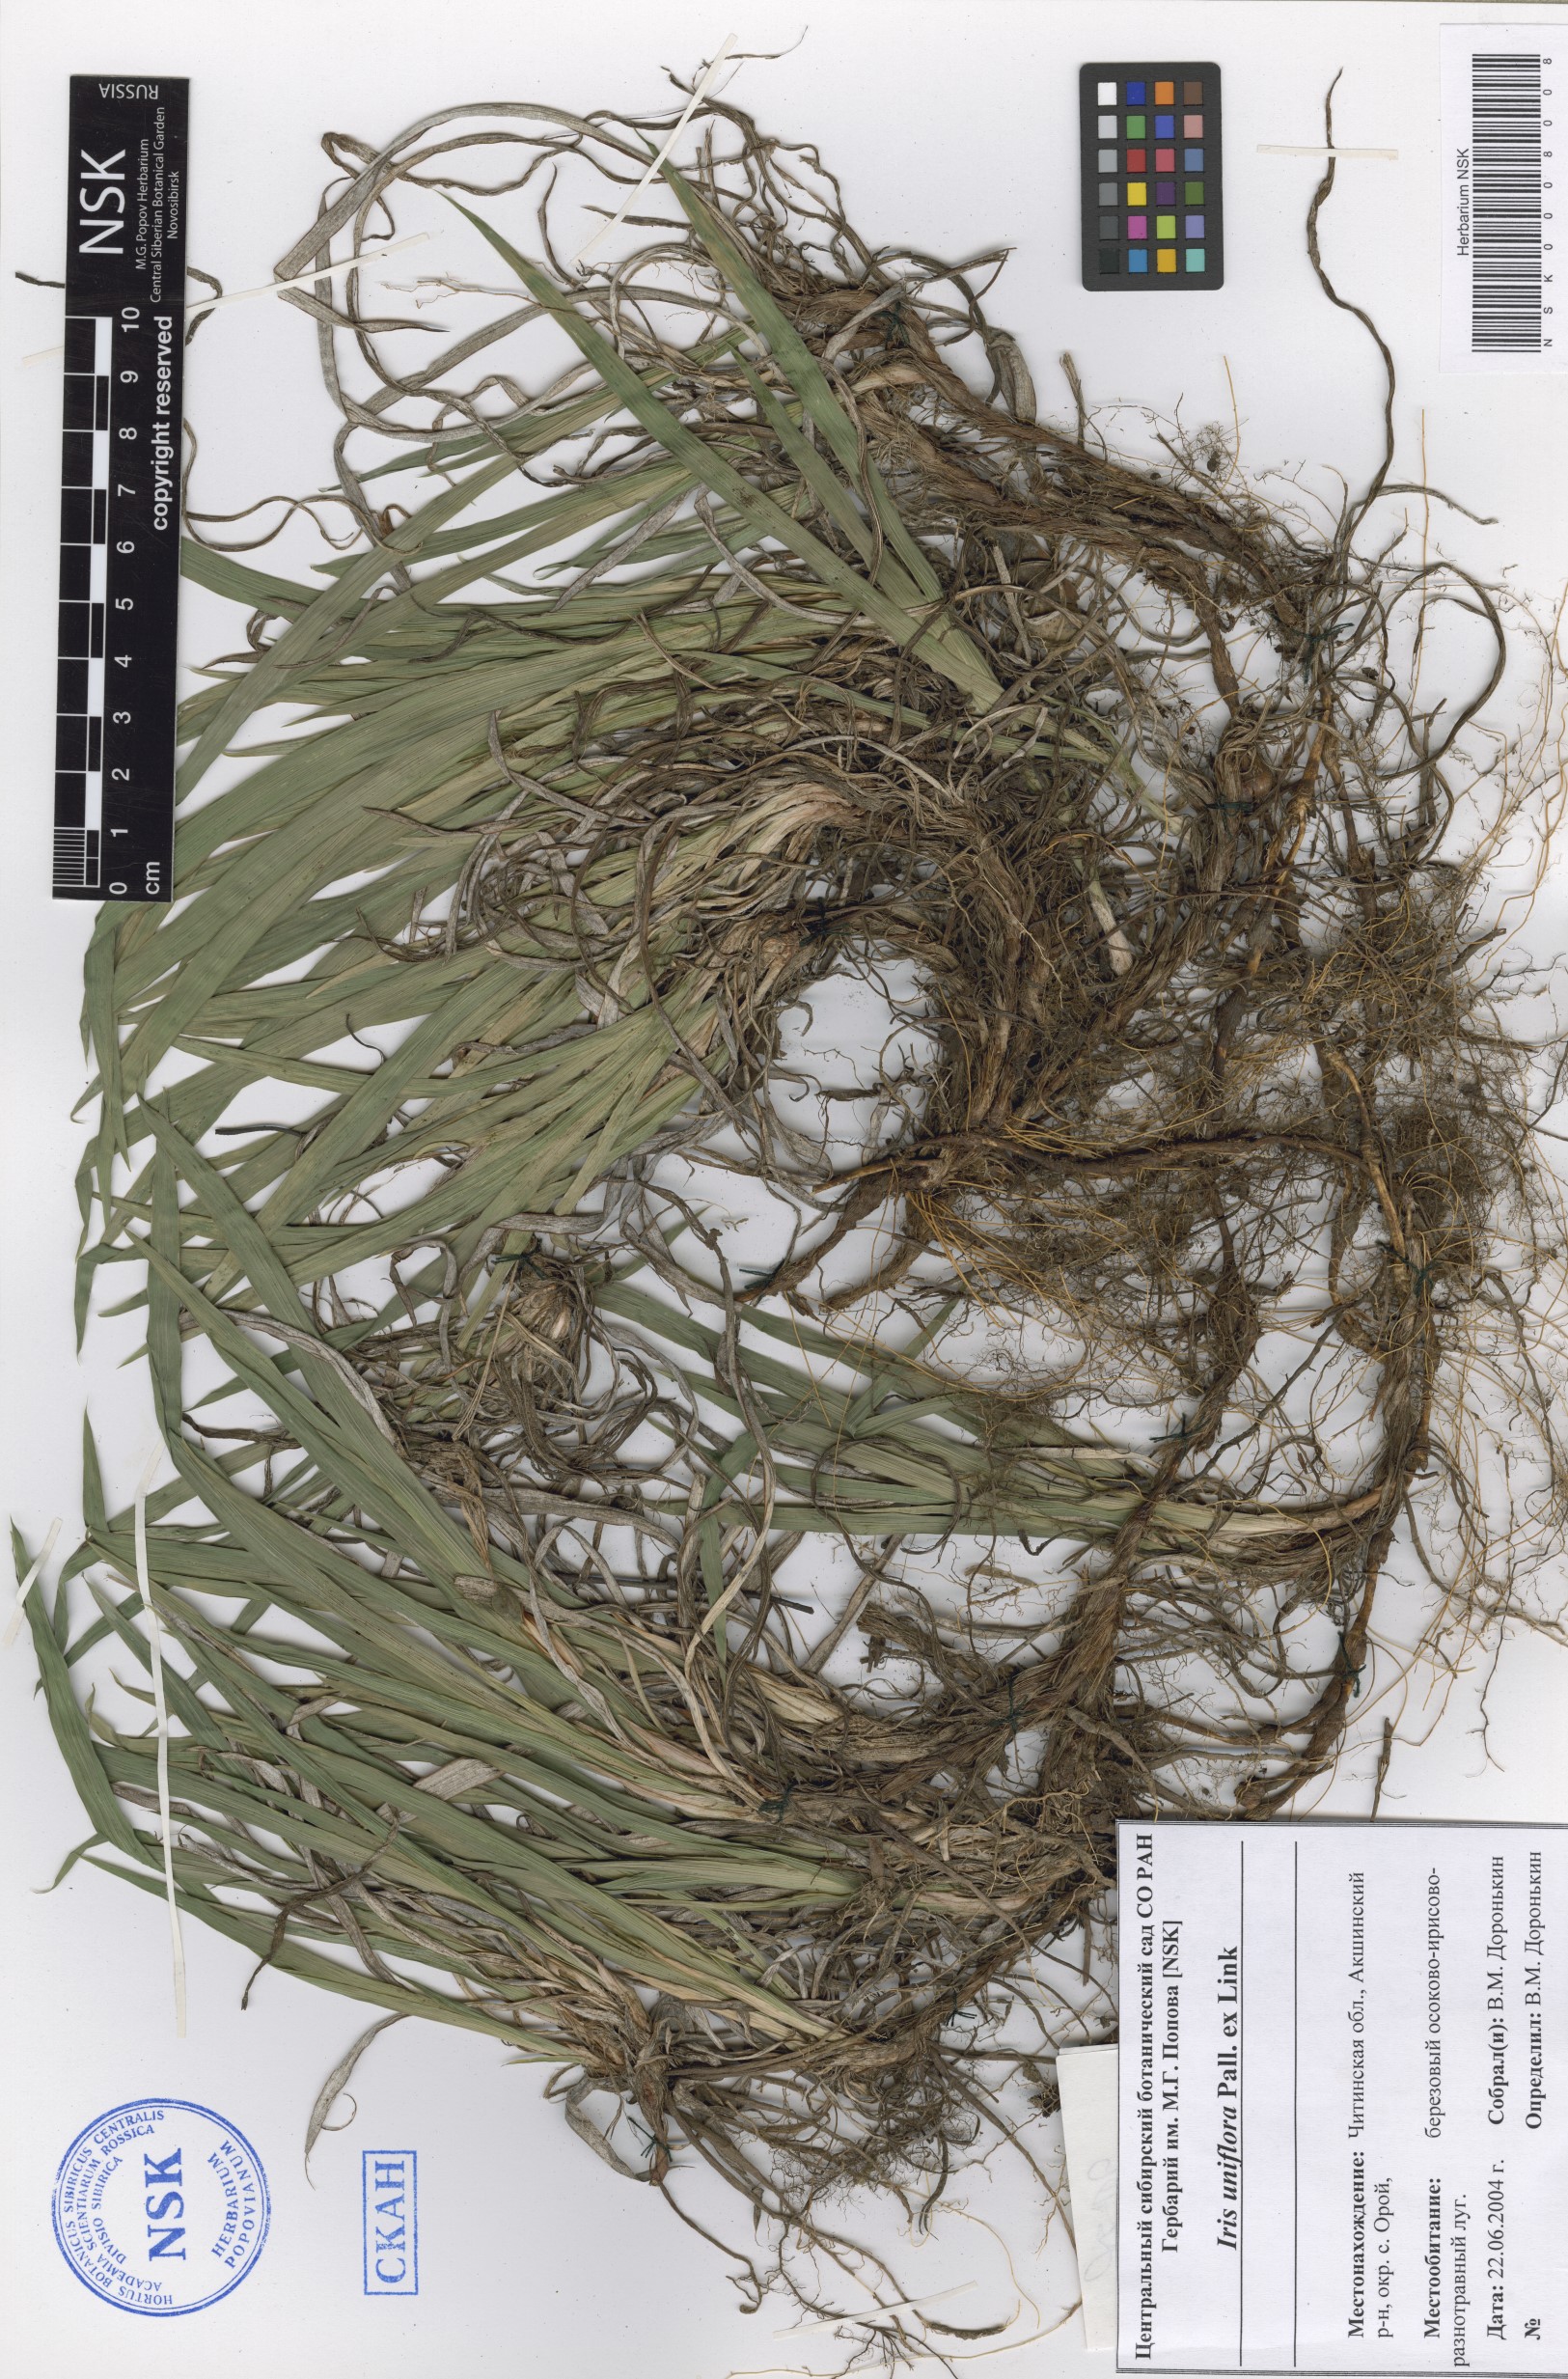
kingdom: Plantae
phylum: Tracheophyta
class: Liliopsida
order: Asparagales
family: Iridaceae
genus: Iris
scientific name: Iris uniflora
